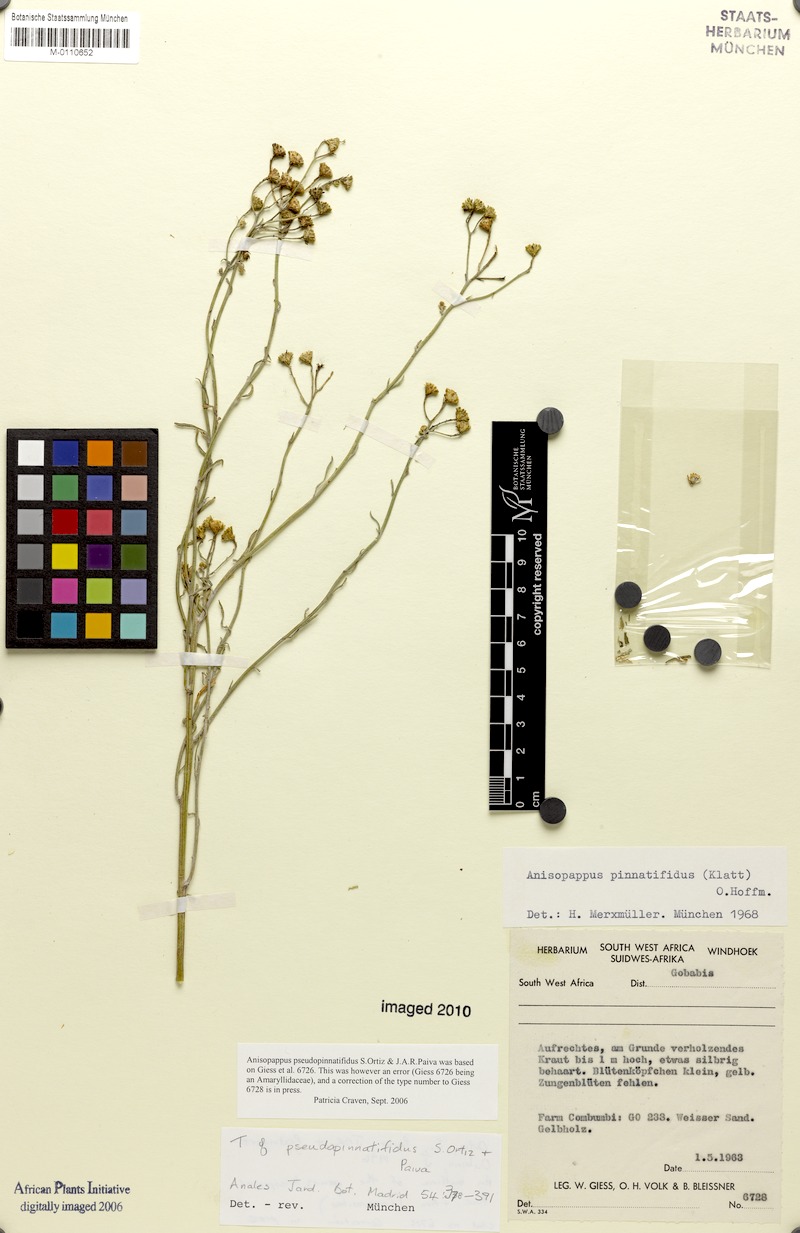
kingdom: Plantae
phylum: Tracheophyta
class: Magnoliopsida
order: Asterales
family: Asteraceae
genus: Anisopappus
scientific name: Anisopappus pseudopinnatifidus
